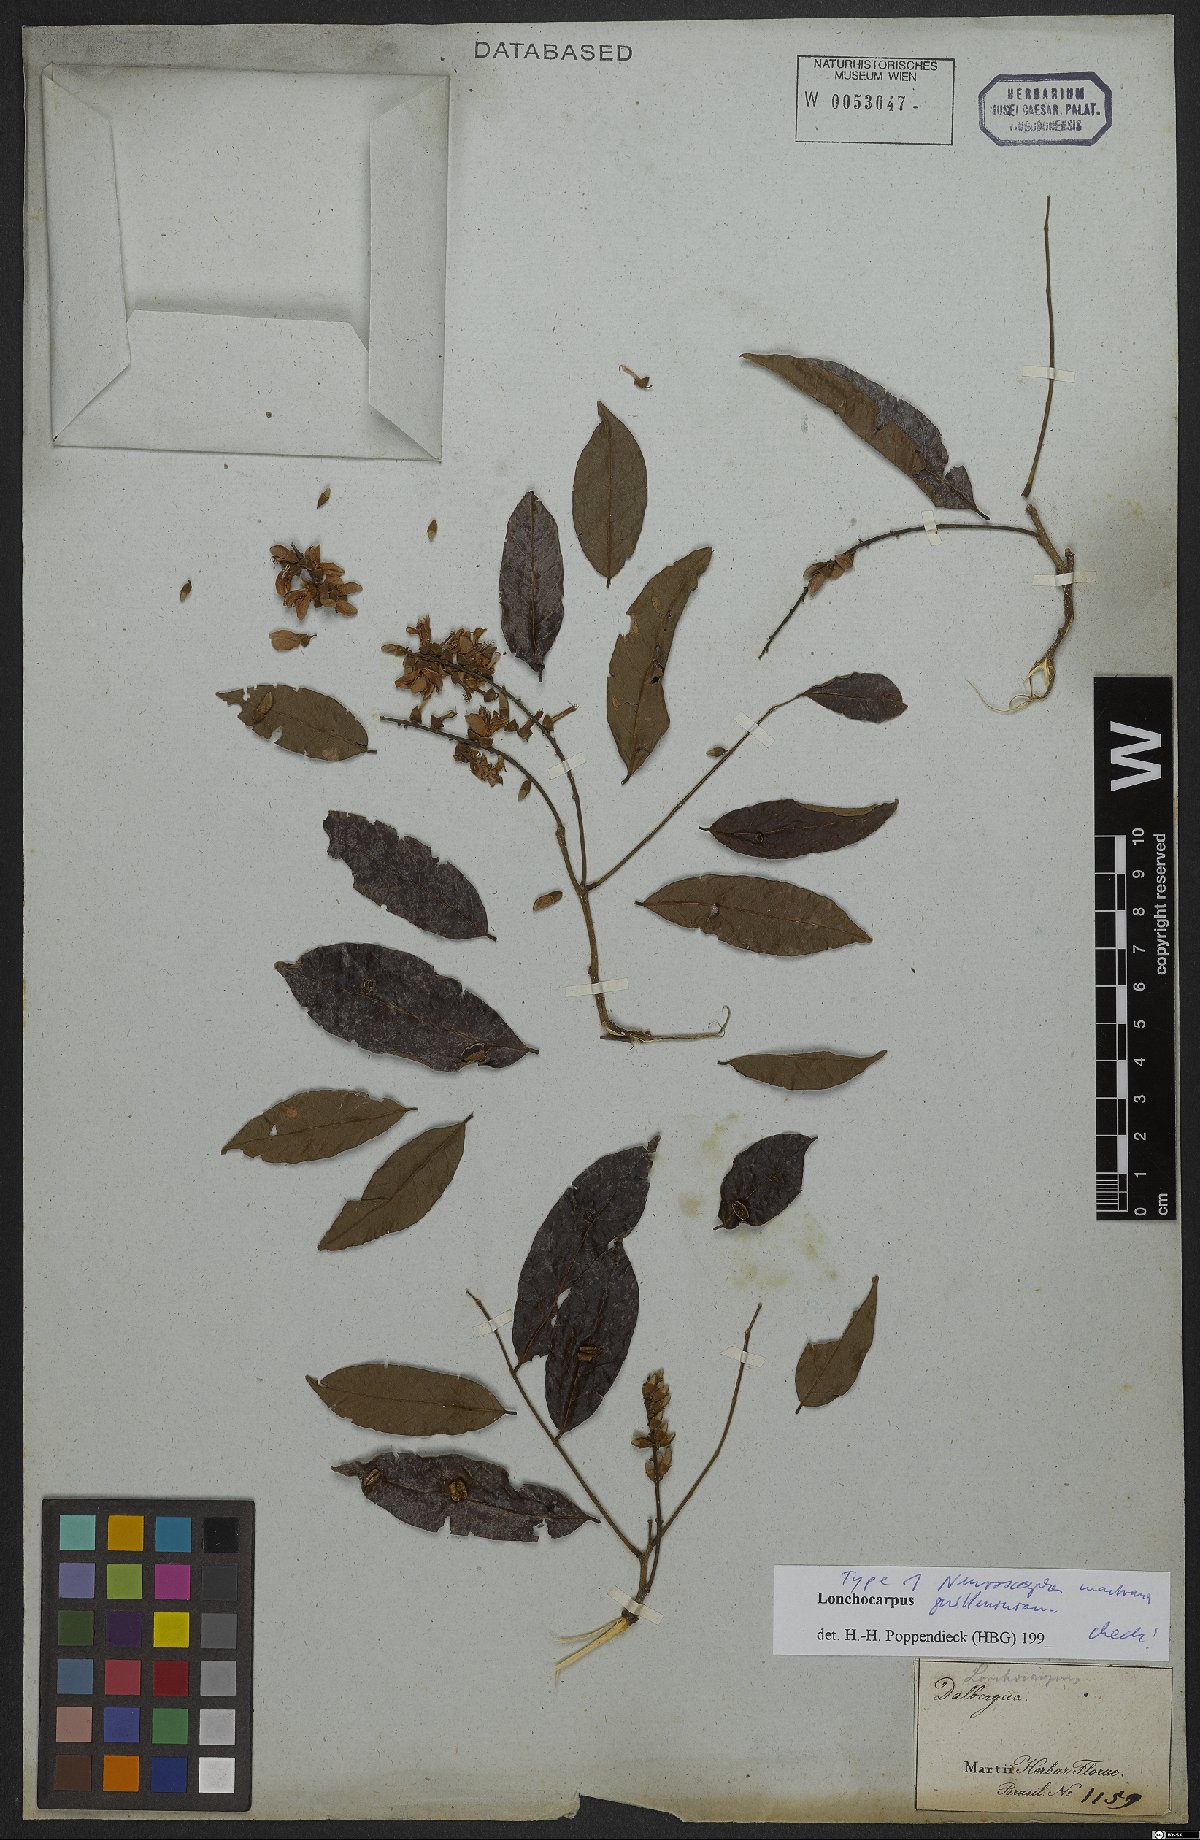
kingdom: Plantae
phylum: Tracheophyta
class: Magnoliopsida
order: Fabales
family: Fabaceae
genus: Lonchocarpus
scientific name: Lonchocarpus cultratus
